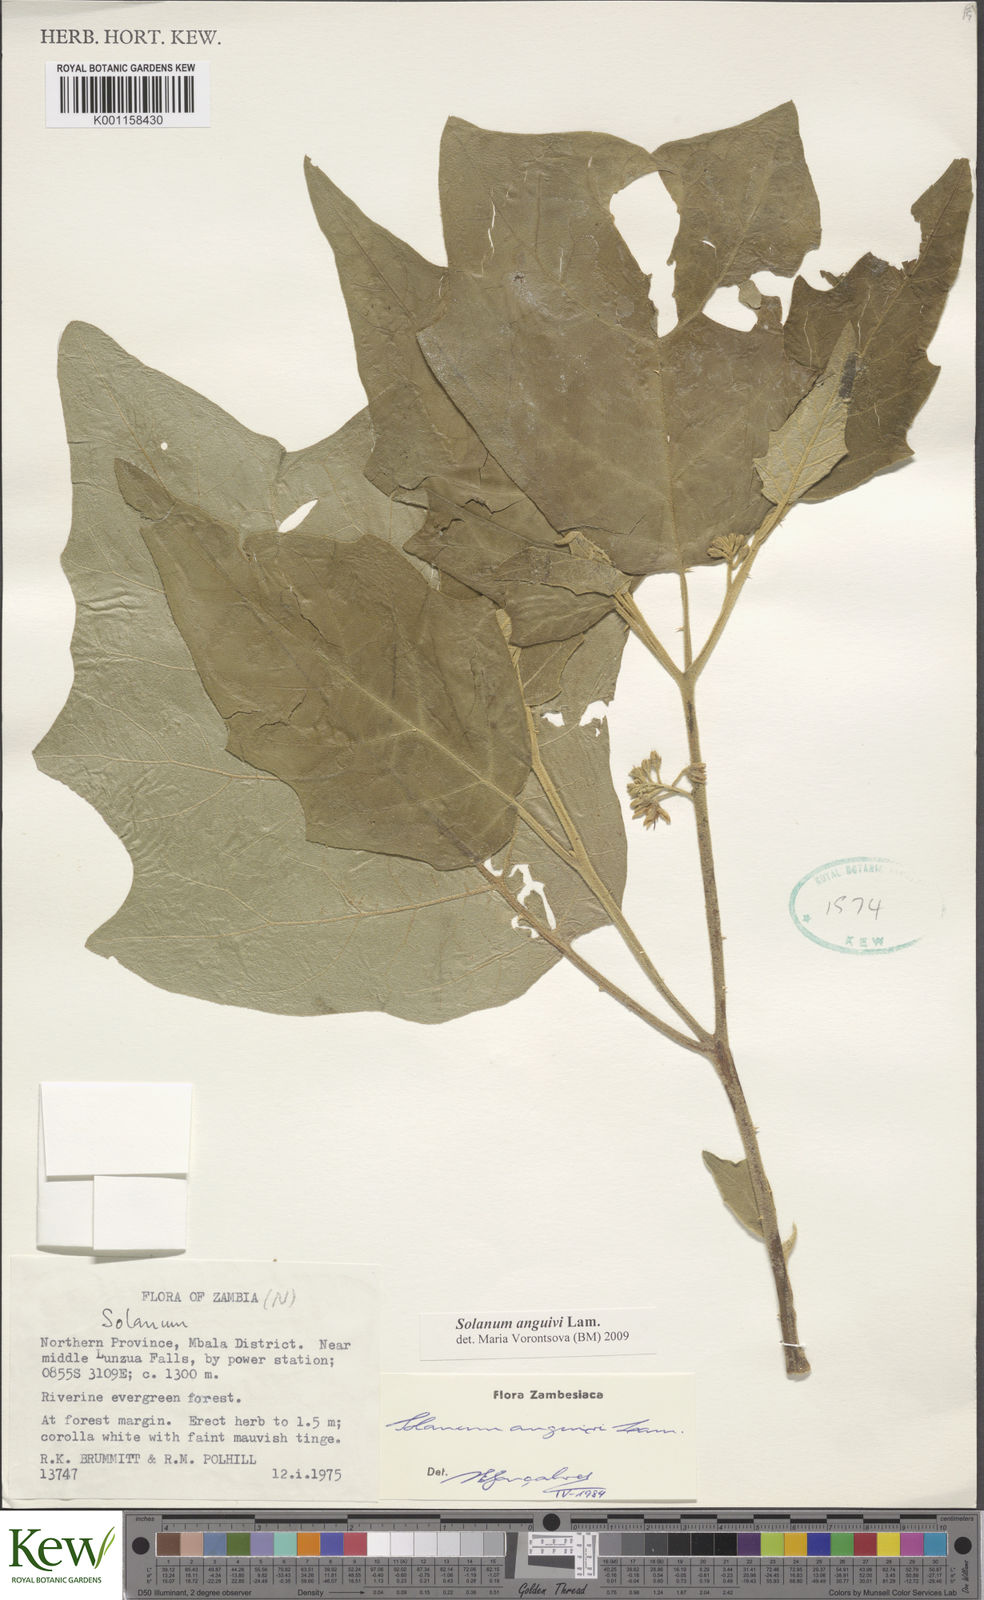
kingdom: Plantae
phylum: Tracheophyta
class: Magnoliopsida
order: Solanales
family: Solanaceae
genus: Solanum
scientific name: Solanum anguivi
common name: Forest bitterberry
